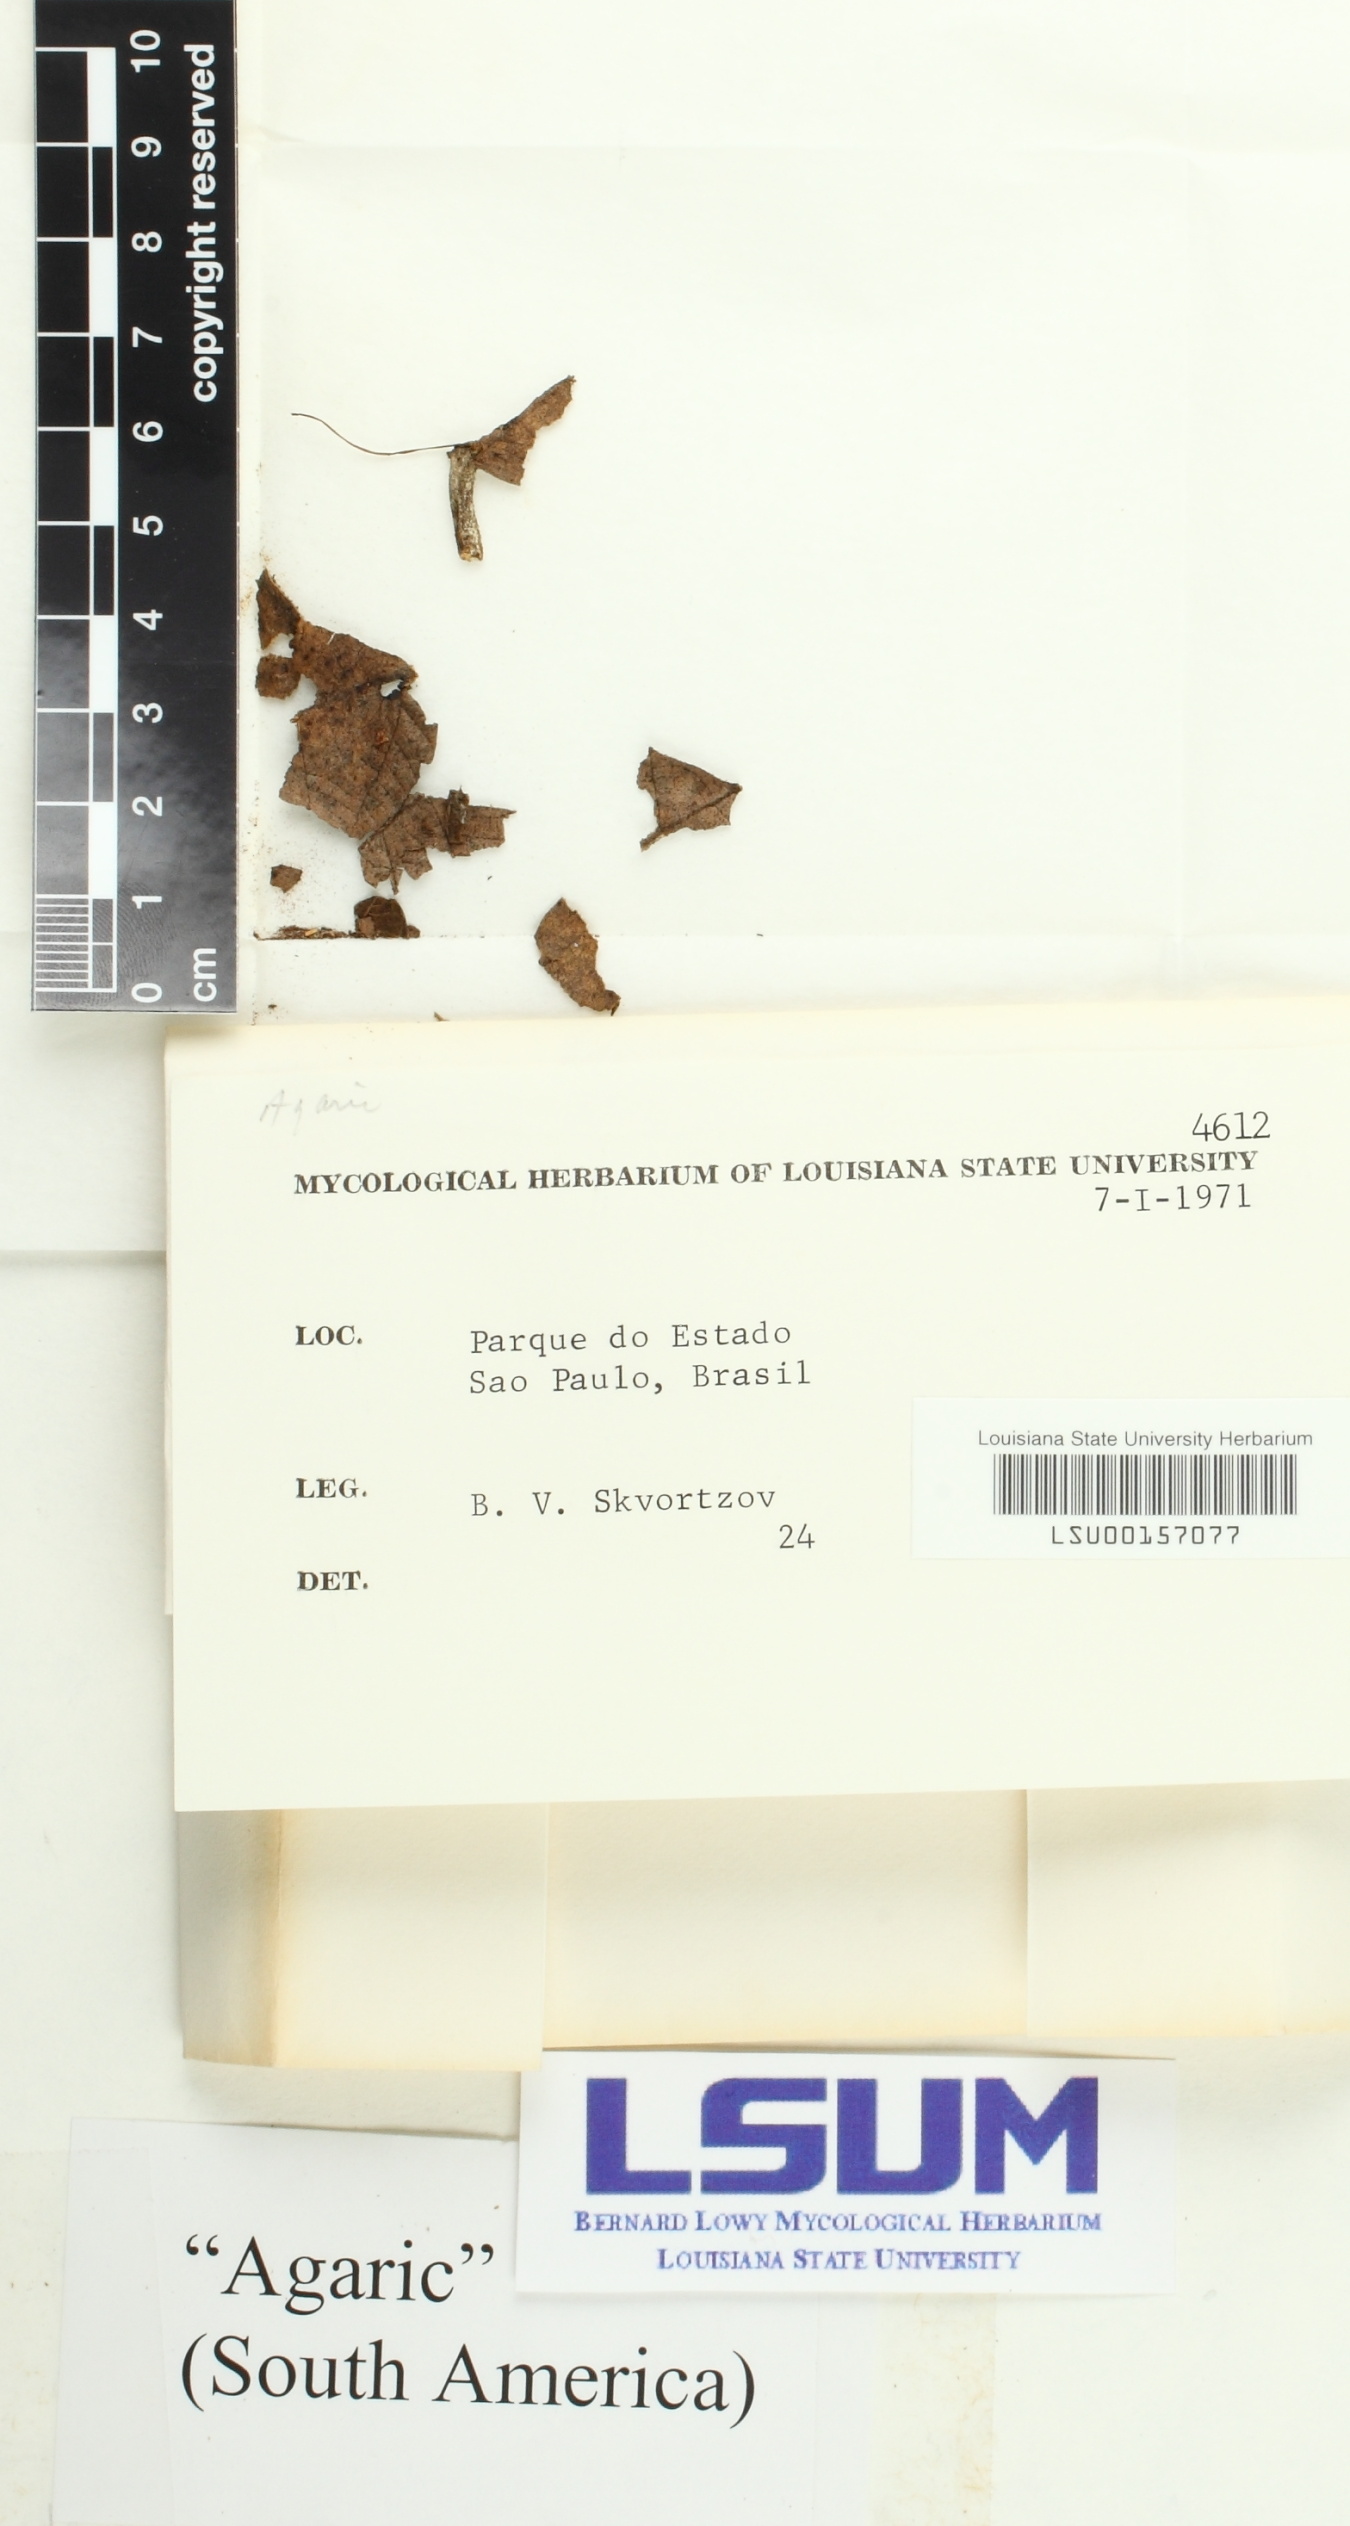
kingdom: Fungi
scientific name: Fungi
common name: Fungi
